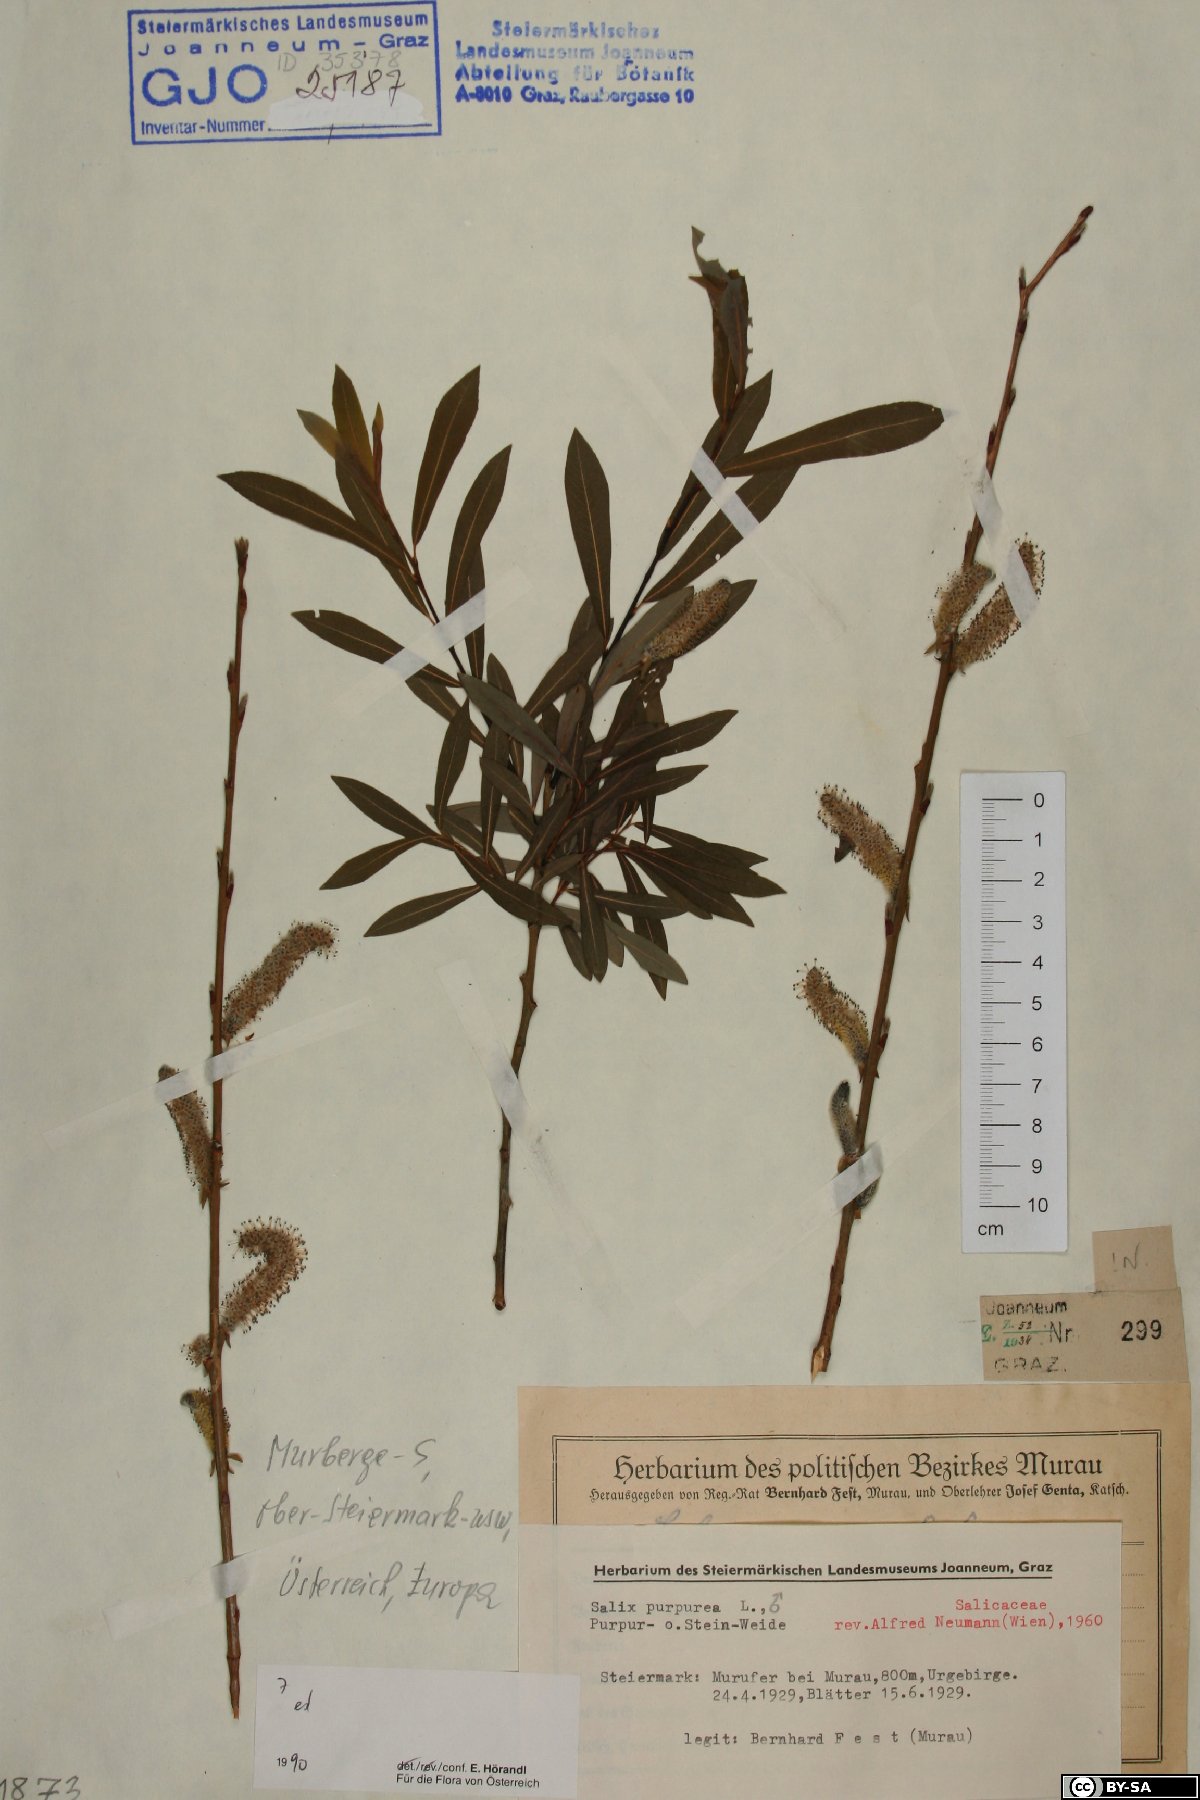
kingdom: Plantae
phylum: Tracheophyta
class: Magnoliopsida
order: Malpighiales
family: Salicaceae
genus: Salix
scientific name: Salix purpurea
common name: Purple willow
